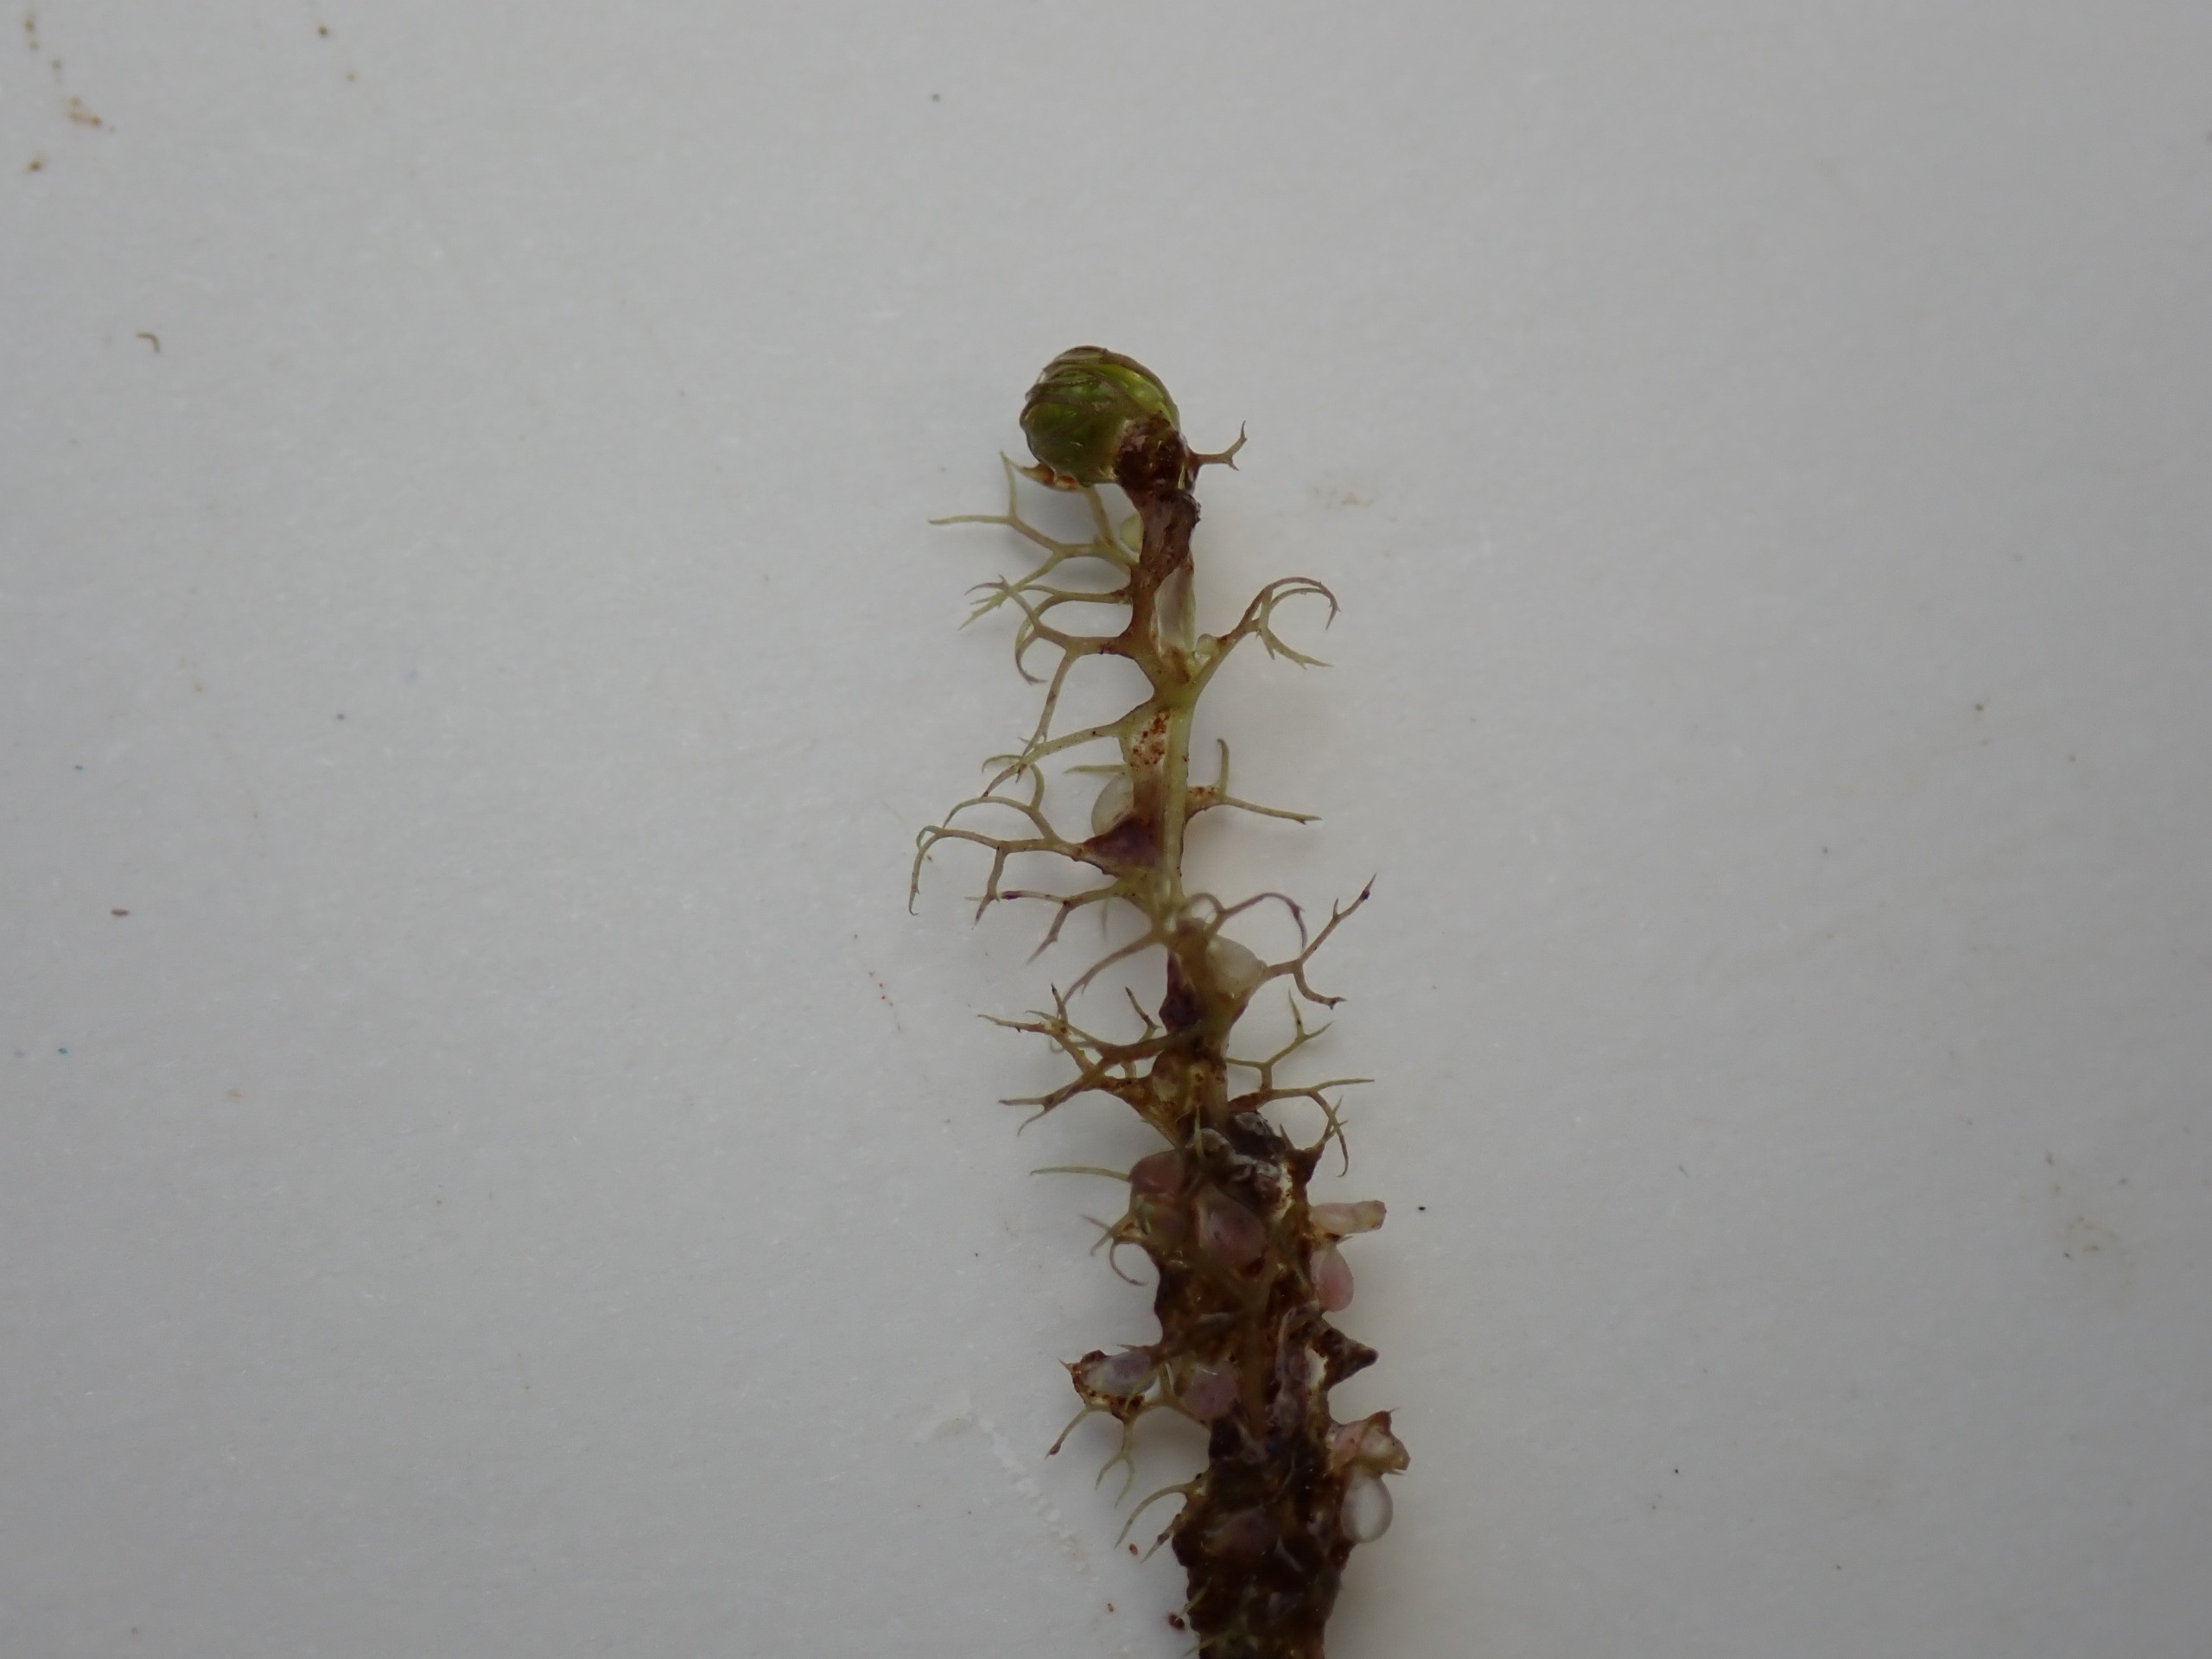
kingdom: Plantae
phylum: Tracheophyta
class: Magnoliopsida
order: Lamiales
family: Lentibulariaceae
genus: Utricularia
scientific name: Utricularia minor
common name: Liden blærerod
